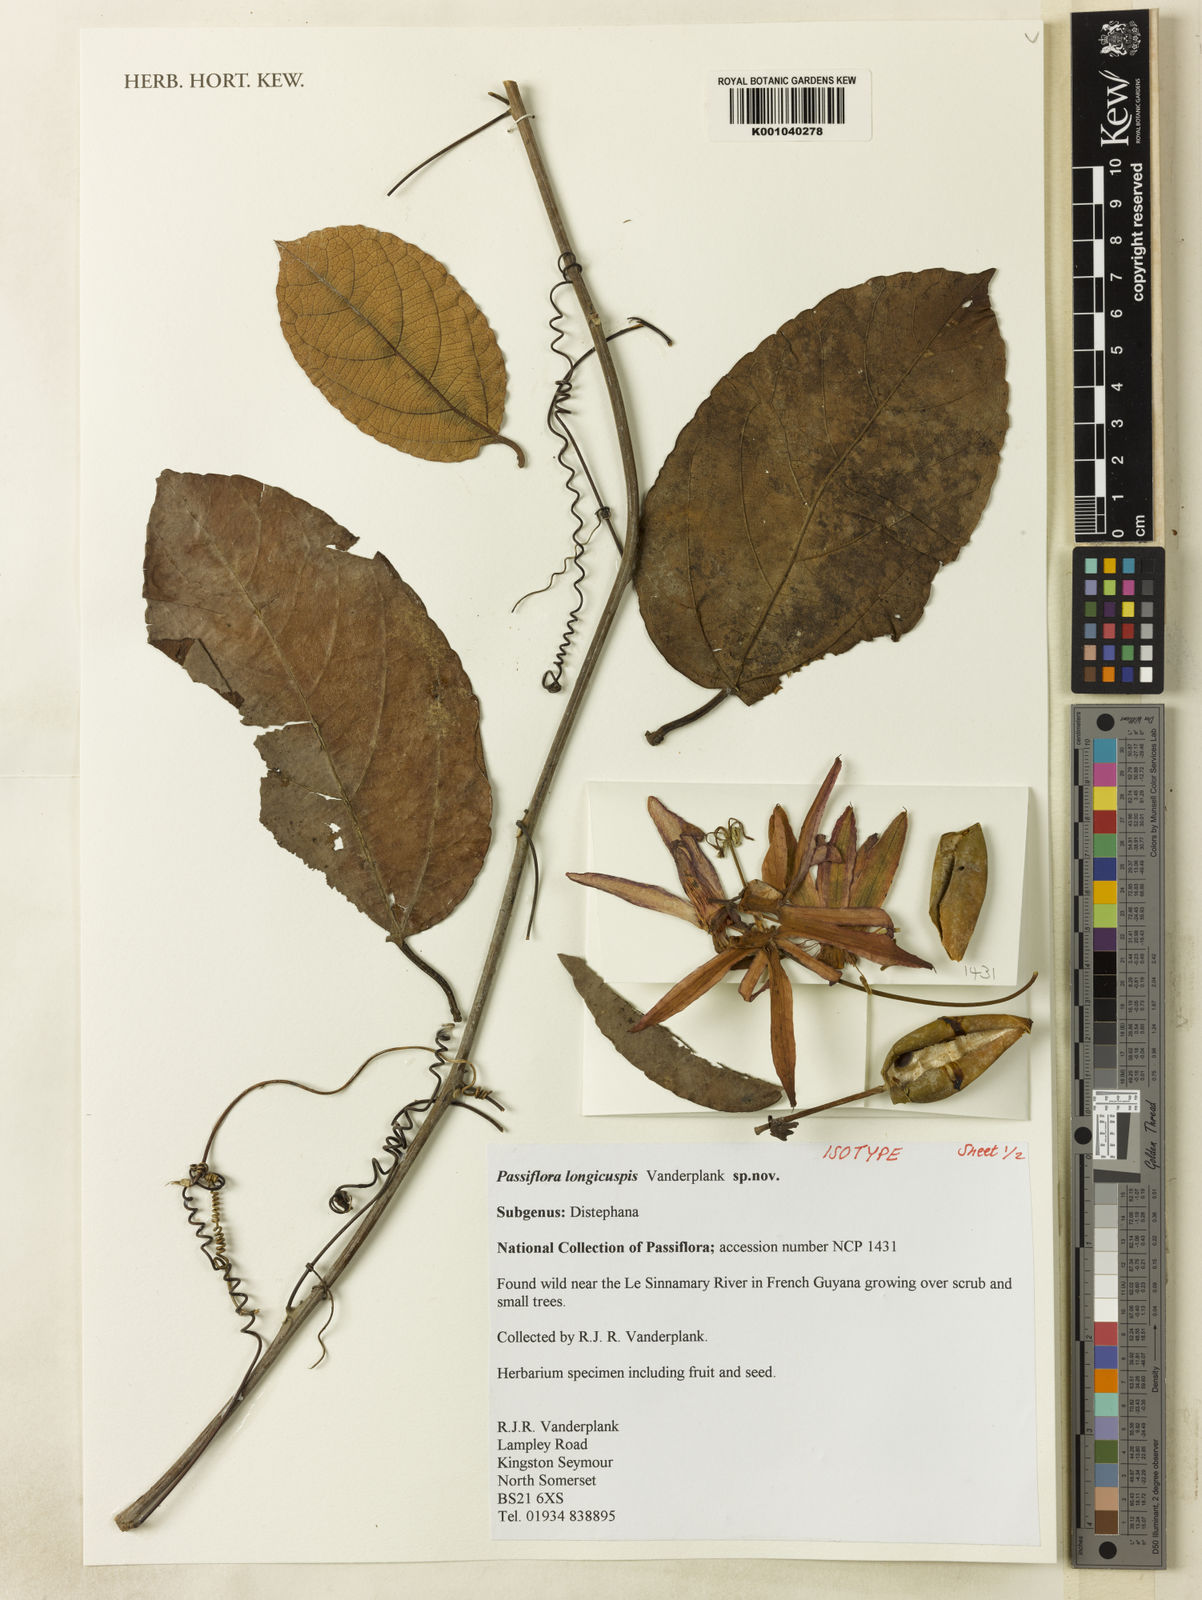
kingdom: Plantae
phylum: Tracheophyta
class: Magnoliopsida
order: Malpighiales
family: Passifloraceae
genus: Passiflora
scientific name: Passiflora longicuspis
